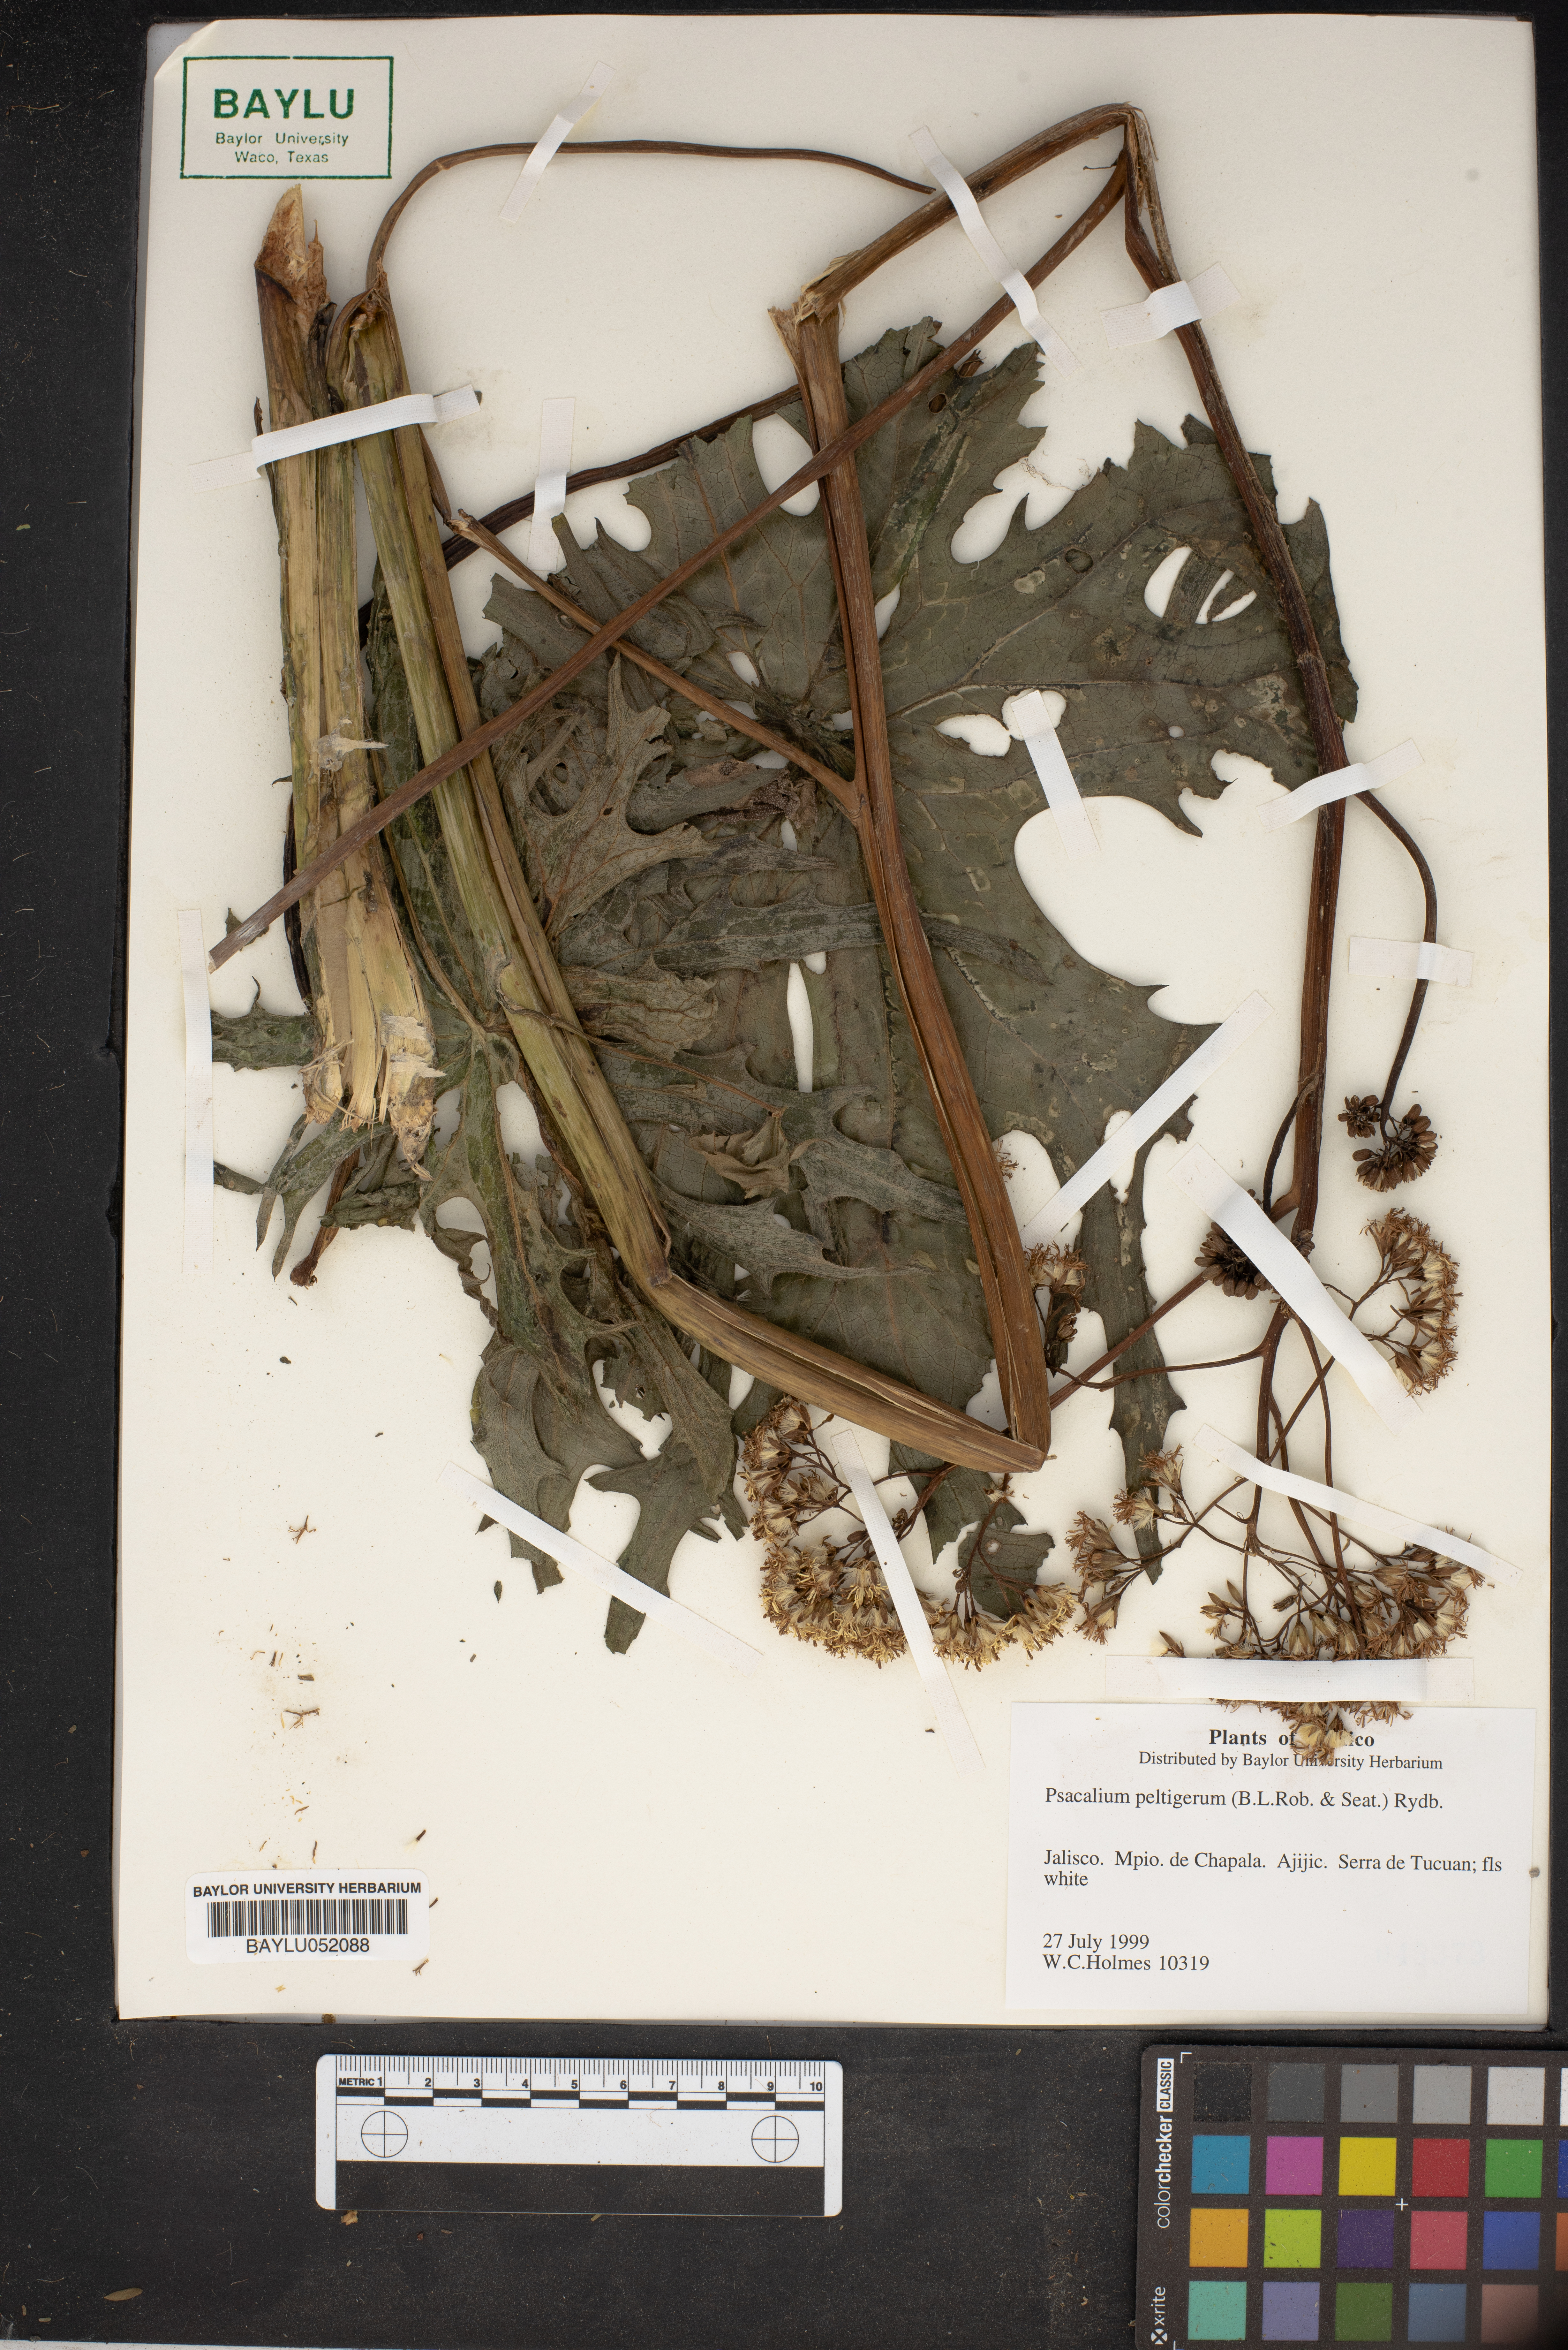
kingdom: Plantae
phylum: Tracheophyta
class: Magnoliopsida
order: Asterales
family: Asteraceae
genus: Psacalium
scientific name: Psacalium peltigerum
